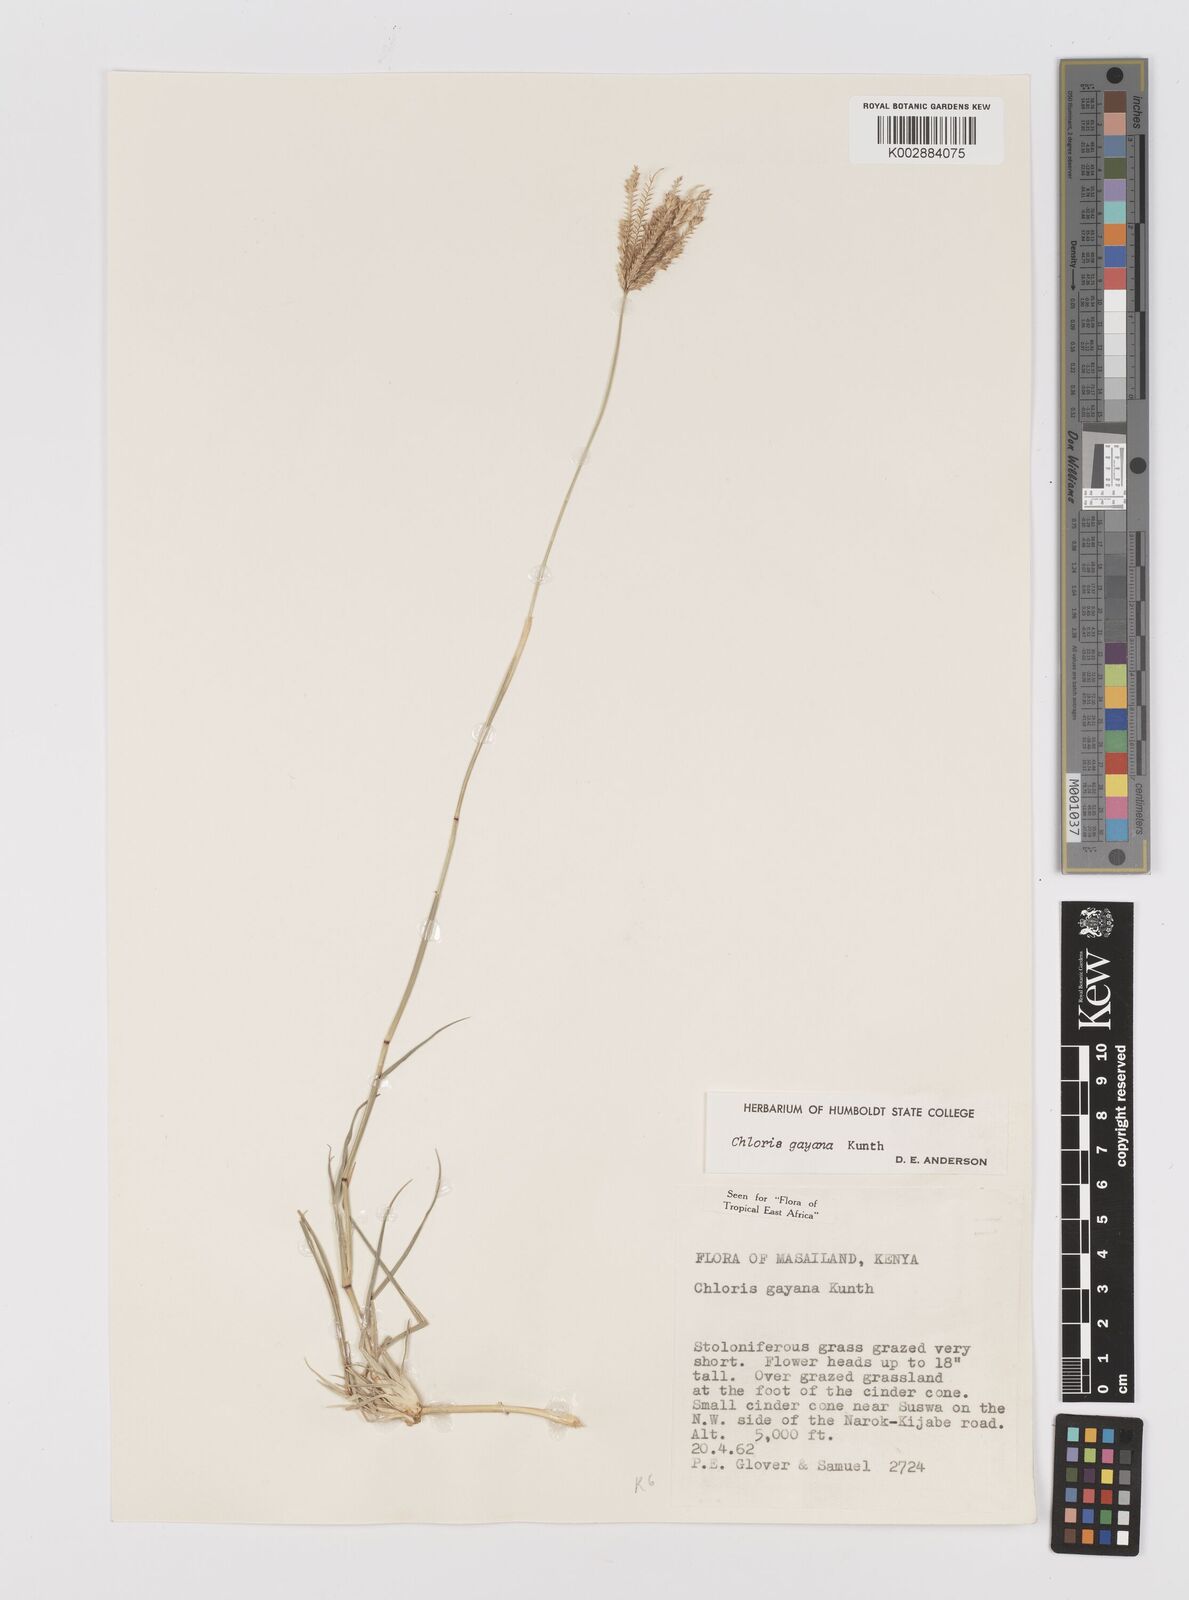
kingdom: Plantae
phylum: Tracheophyta
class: Liliopsida
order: Poales
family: Poaceae
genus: Chloris
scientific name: Chloris gayana
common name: Rhodes grass
